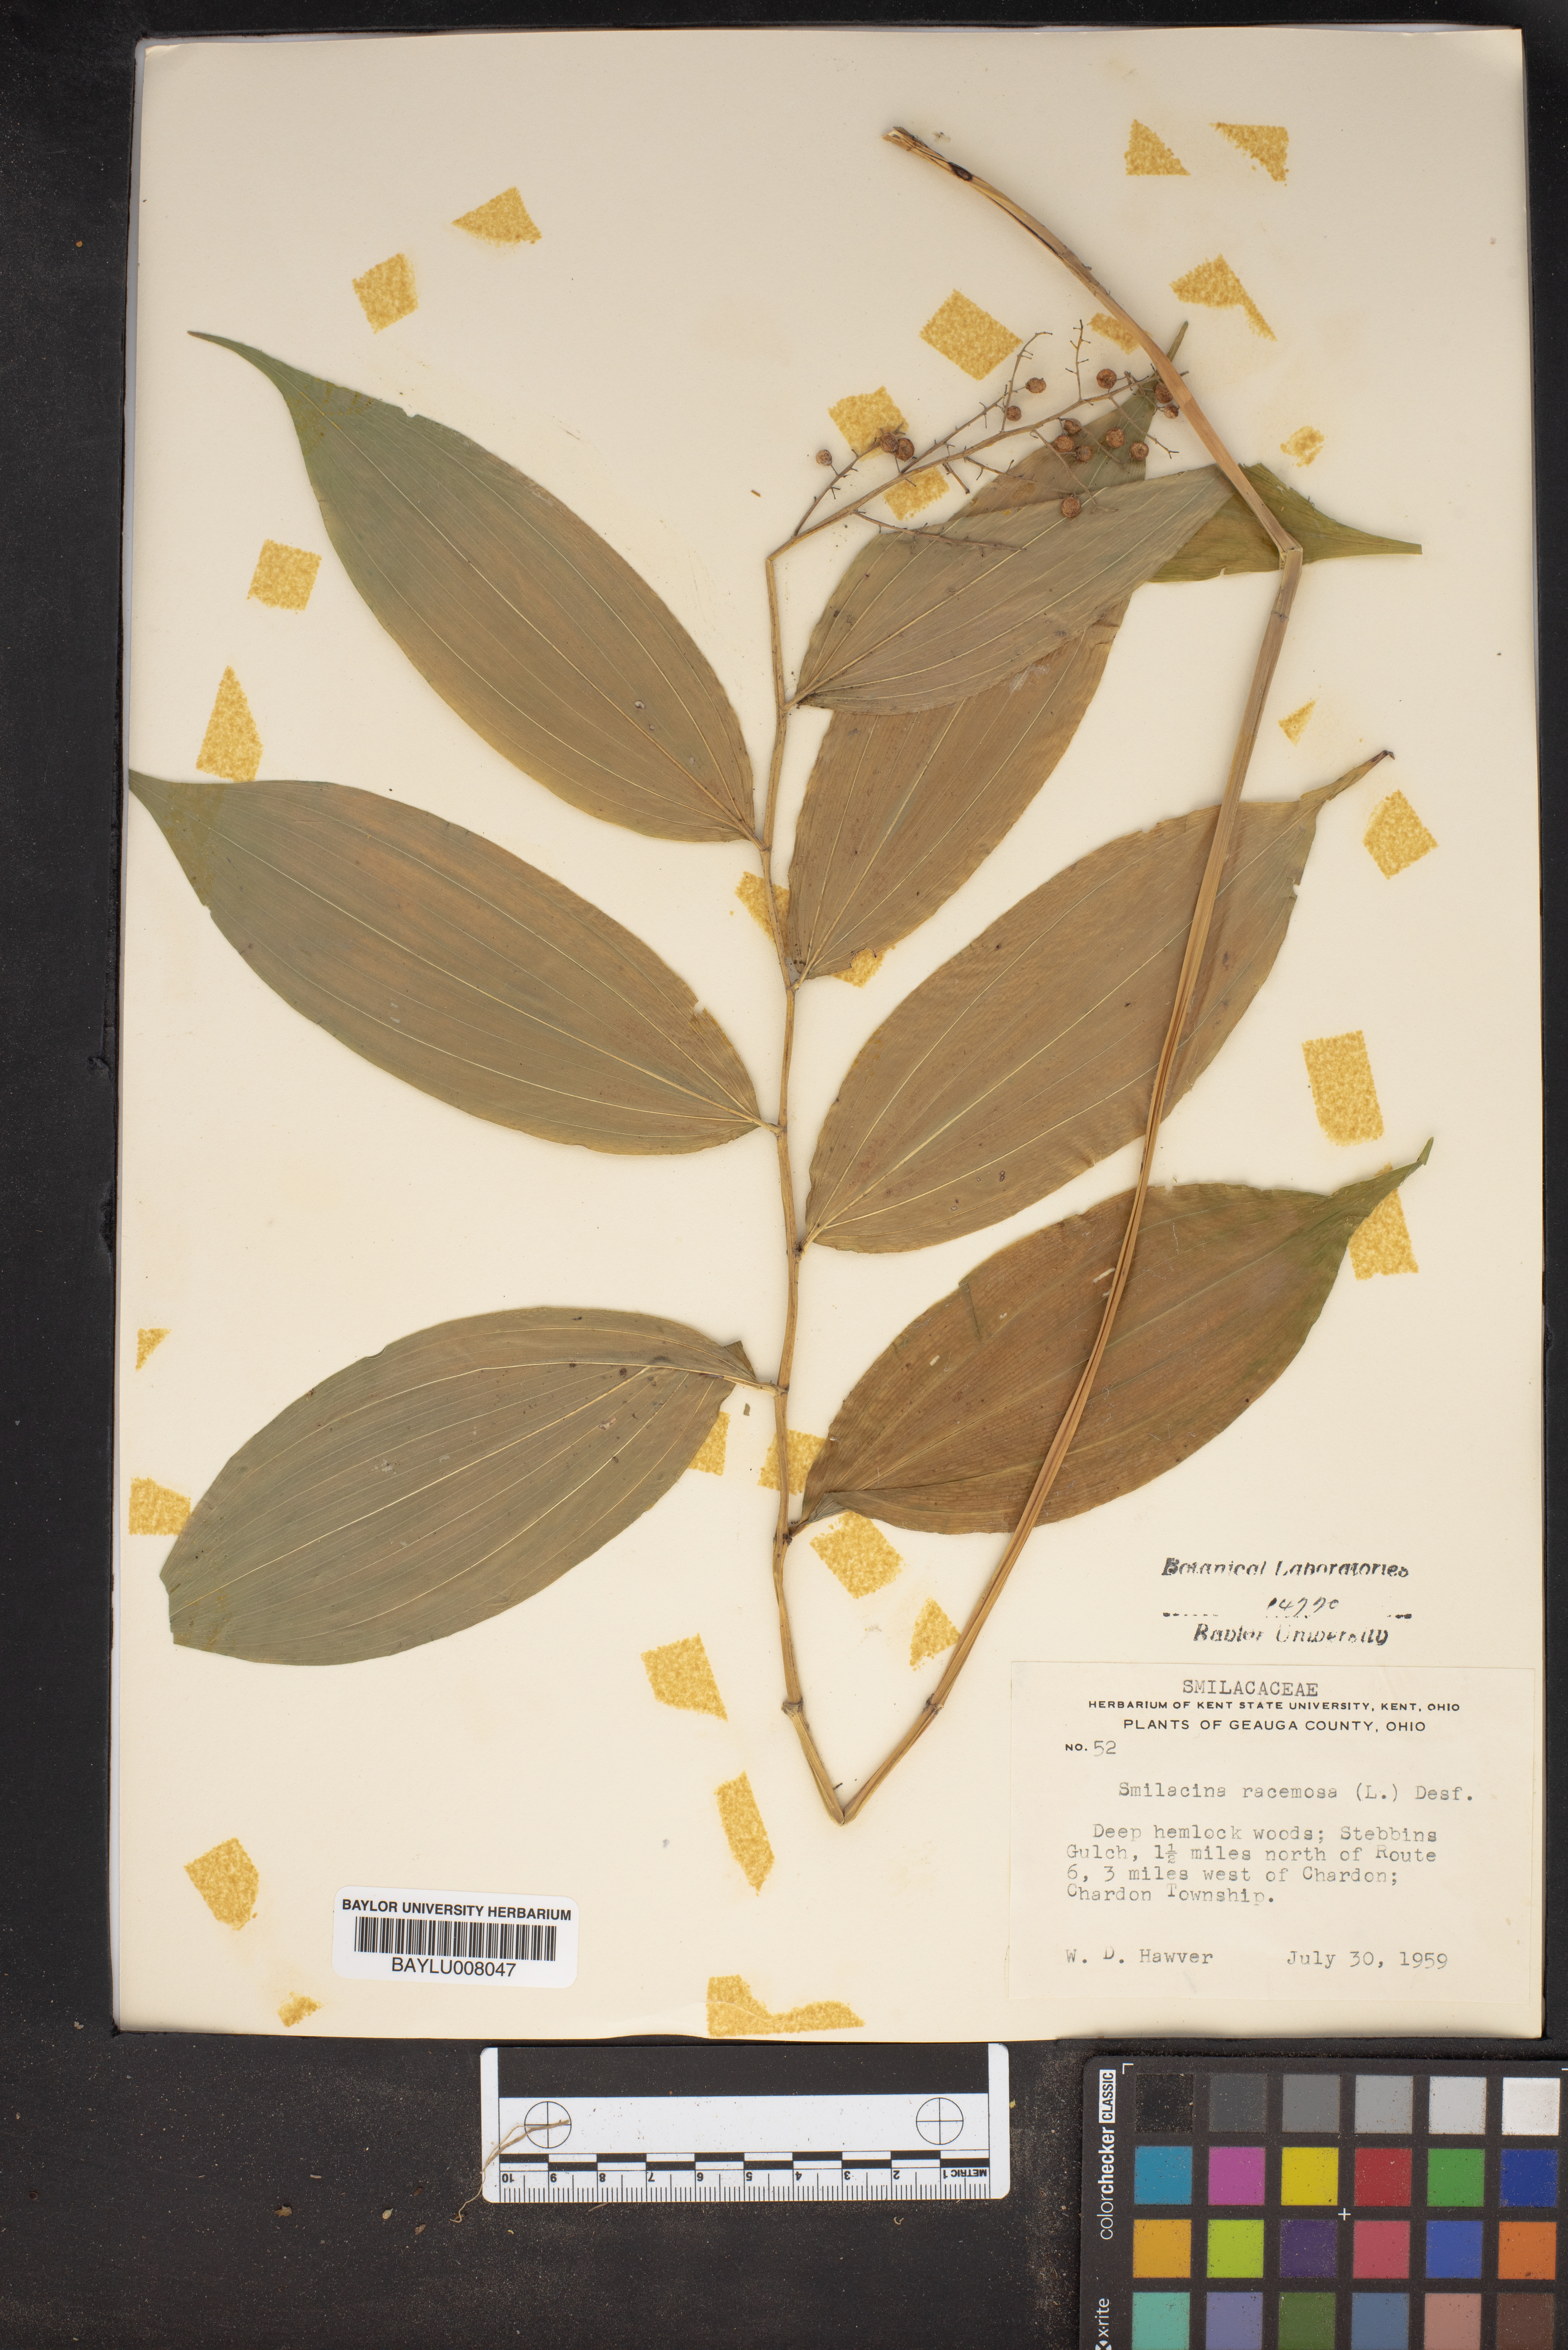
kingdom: Plantae
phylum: Tracheophyta
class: Liliopsida
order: Asparagales
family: Asparagaceae
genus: Maianthemum
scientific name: Maianthemum racemosum
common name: False spikenard
